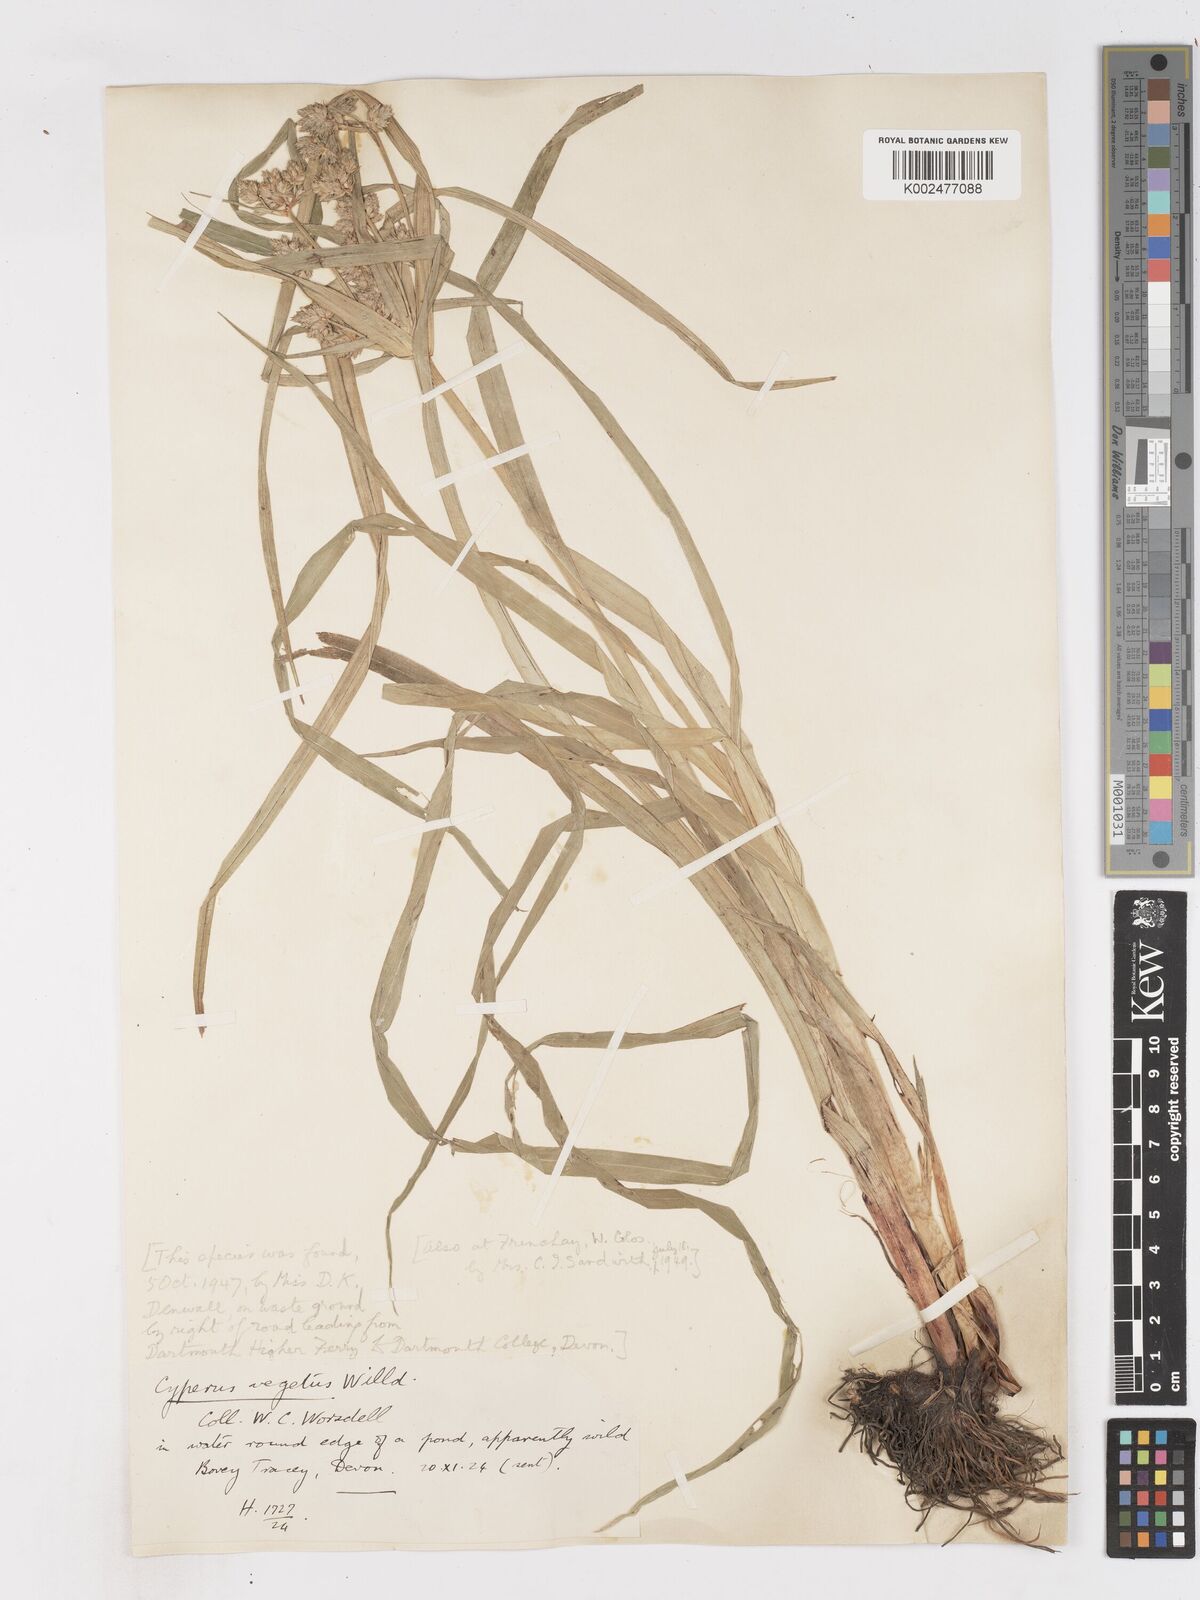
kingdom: Plantae
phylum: Tracheophyta
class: Liliopsida
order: Poales
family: Cyperaceae
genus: Cyperus
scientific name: Cyperus eragrostis
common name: Tall flatsedge
